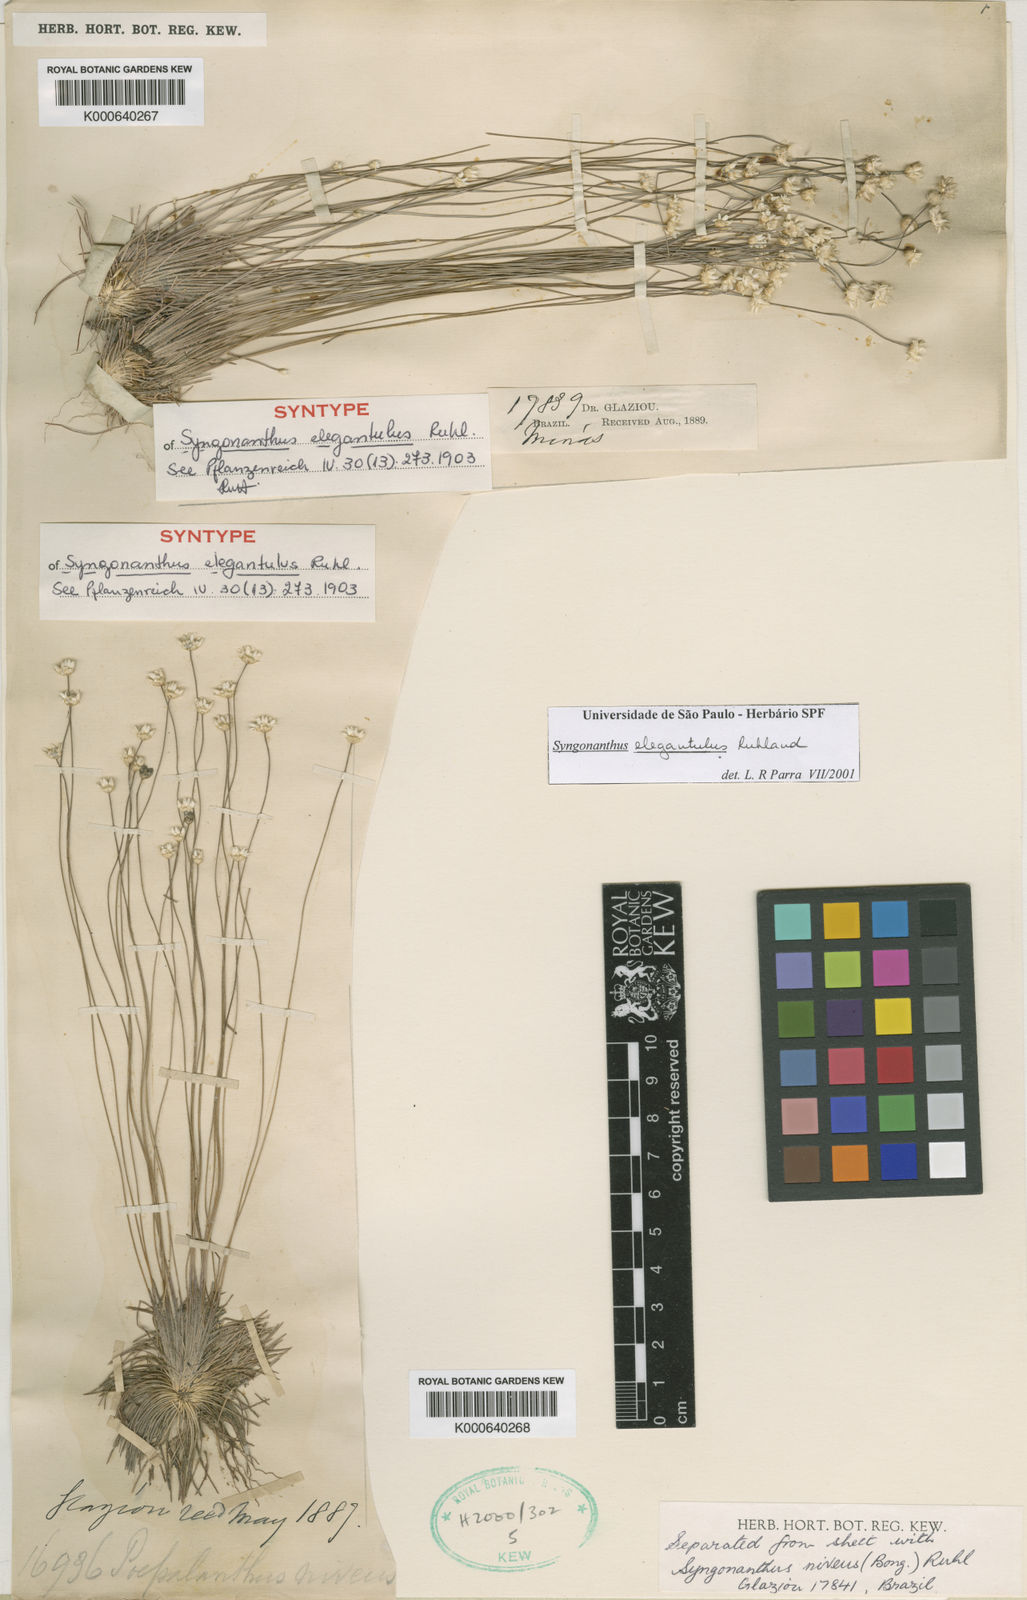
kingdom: Plantae
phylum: Tracheophyta
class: Liliopsida
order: Poales
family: Eriocaulaceae
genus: Comanthera
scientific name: Comanthera elegantula
